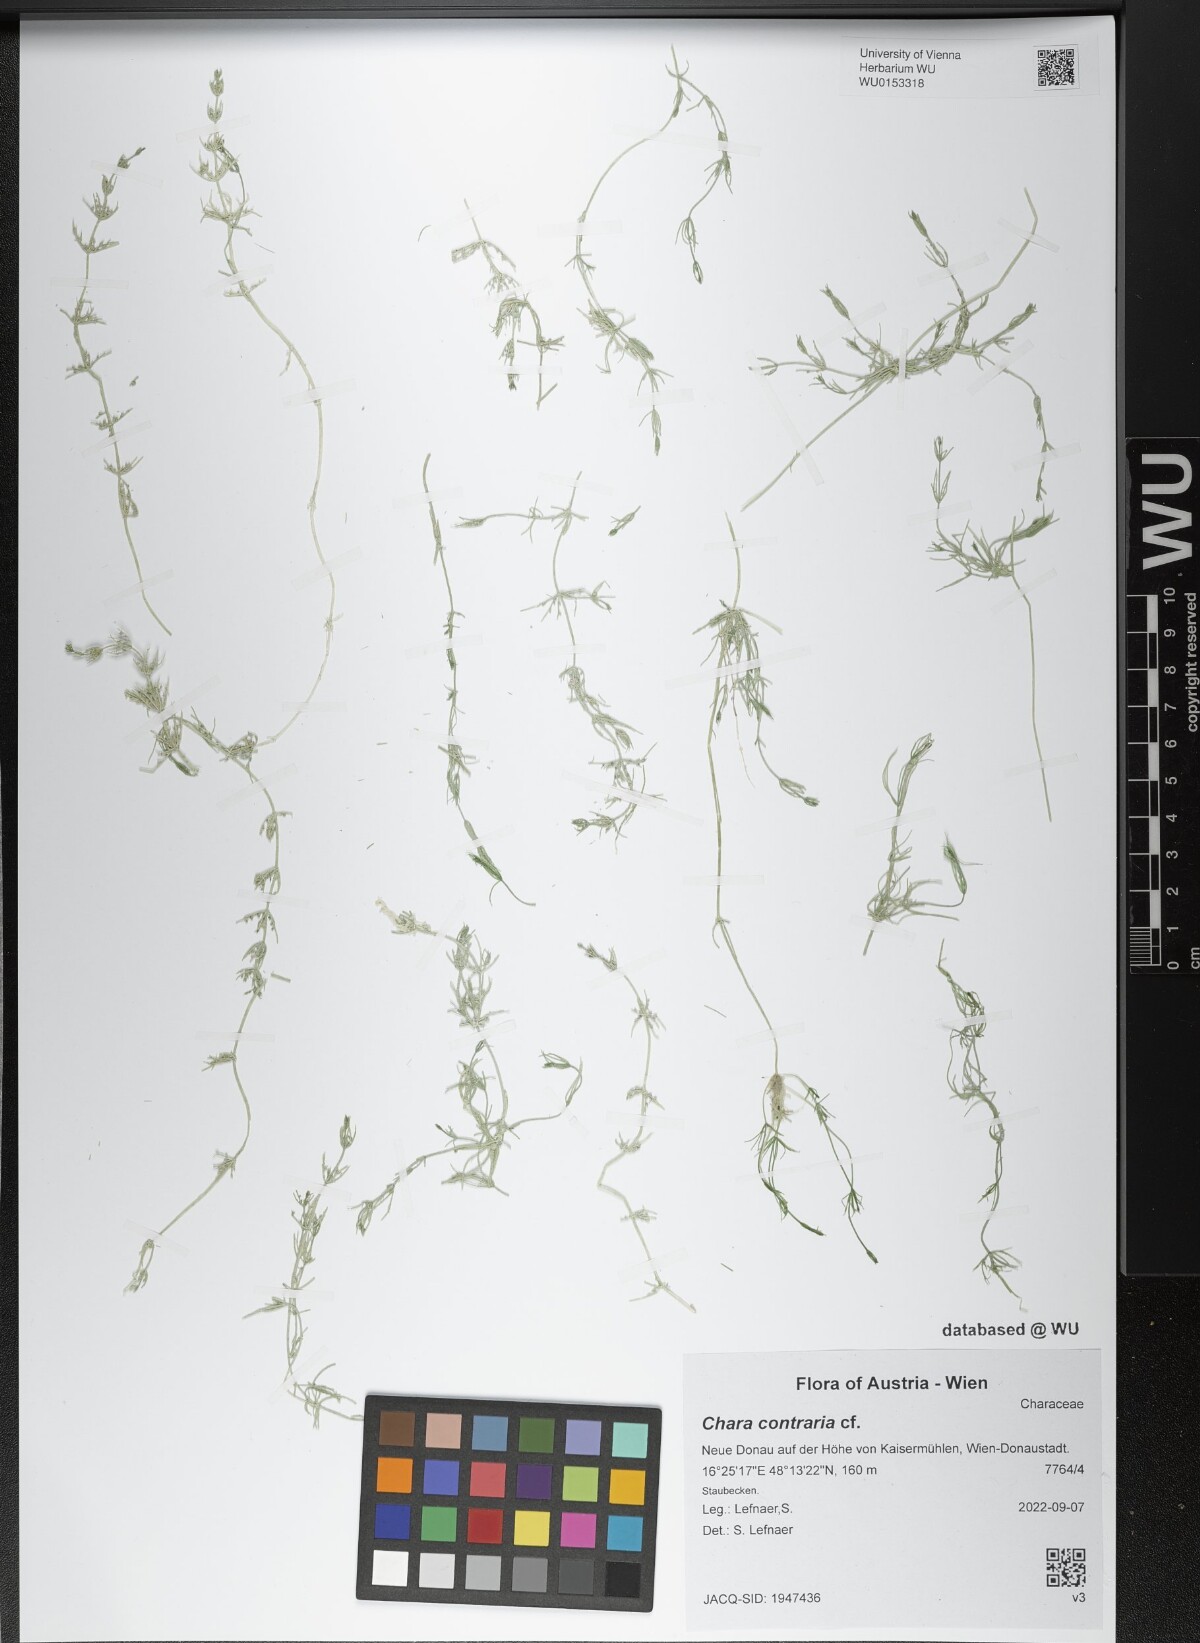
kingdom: Plantae
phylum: Charophyta
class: Charophyceae
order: Charales
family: Characeae
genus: Chara
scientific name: Chara contraria
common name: Opposite stonewort
